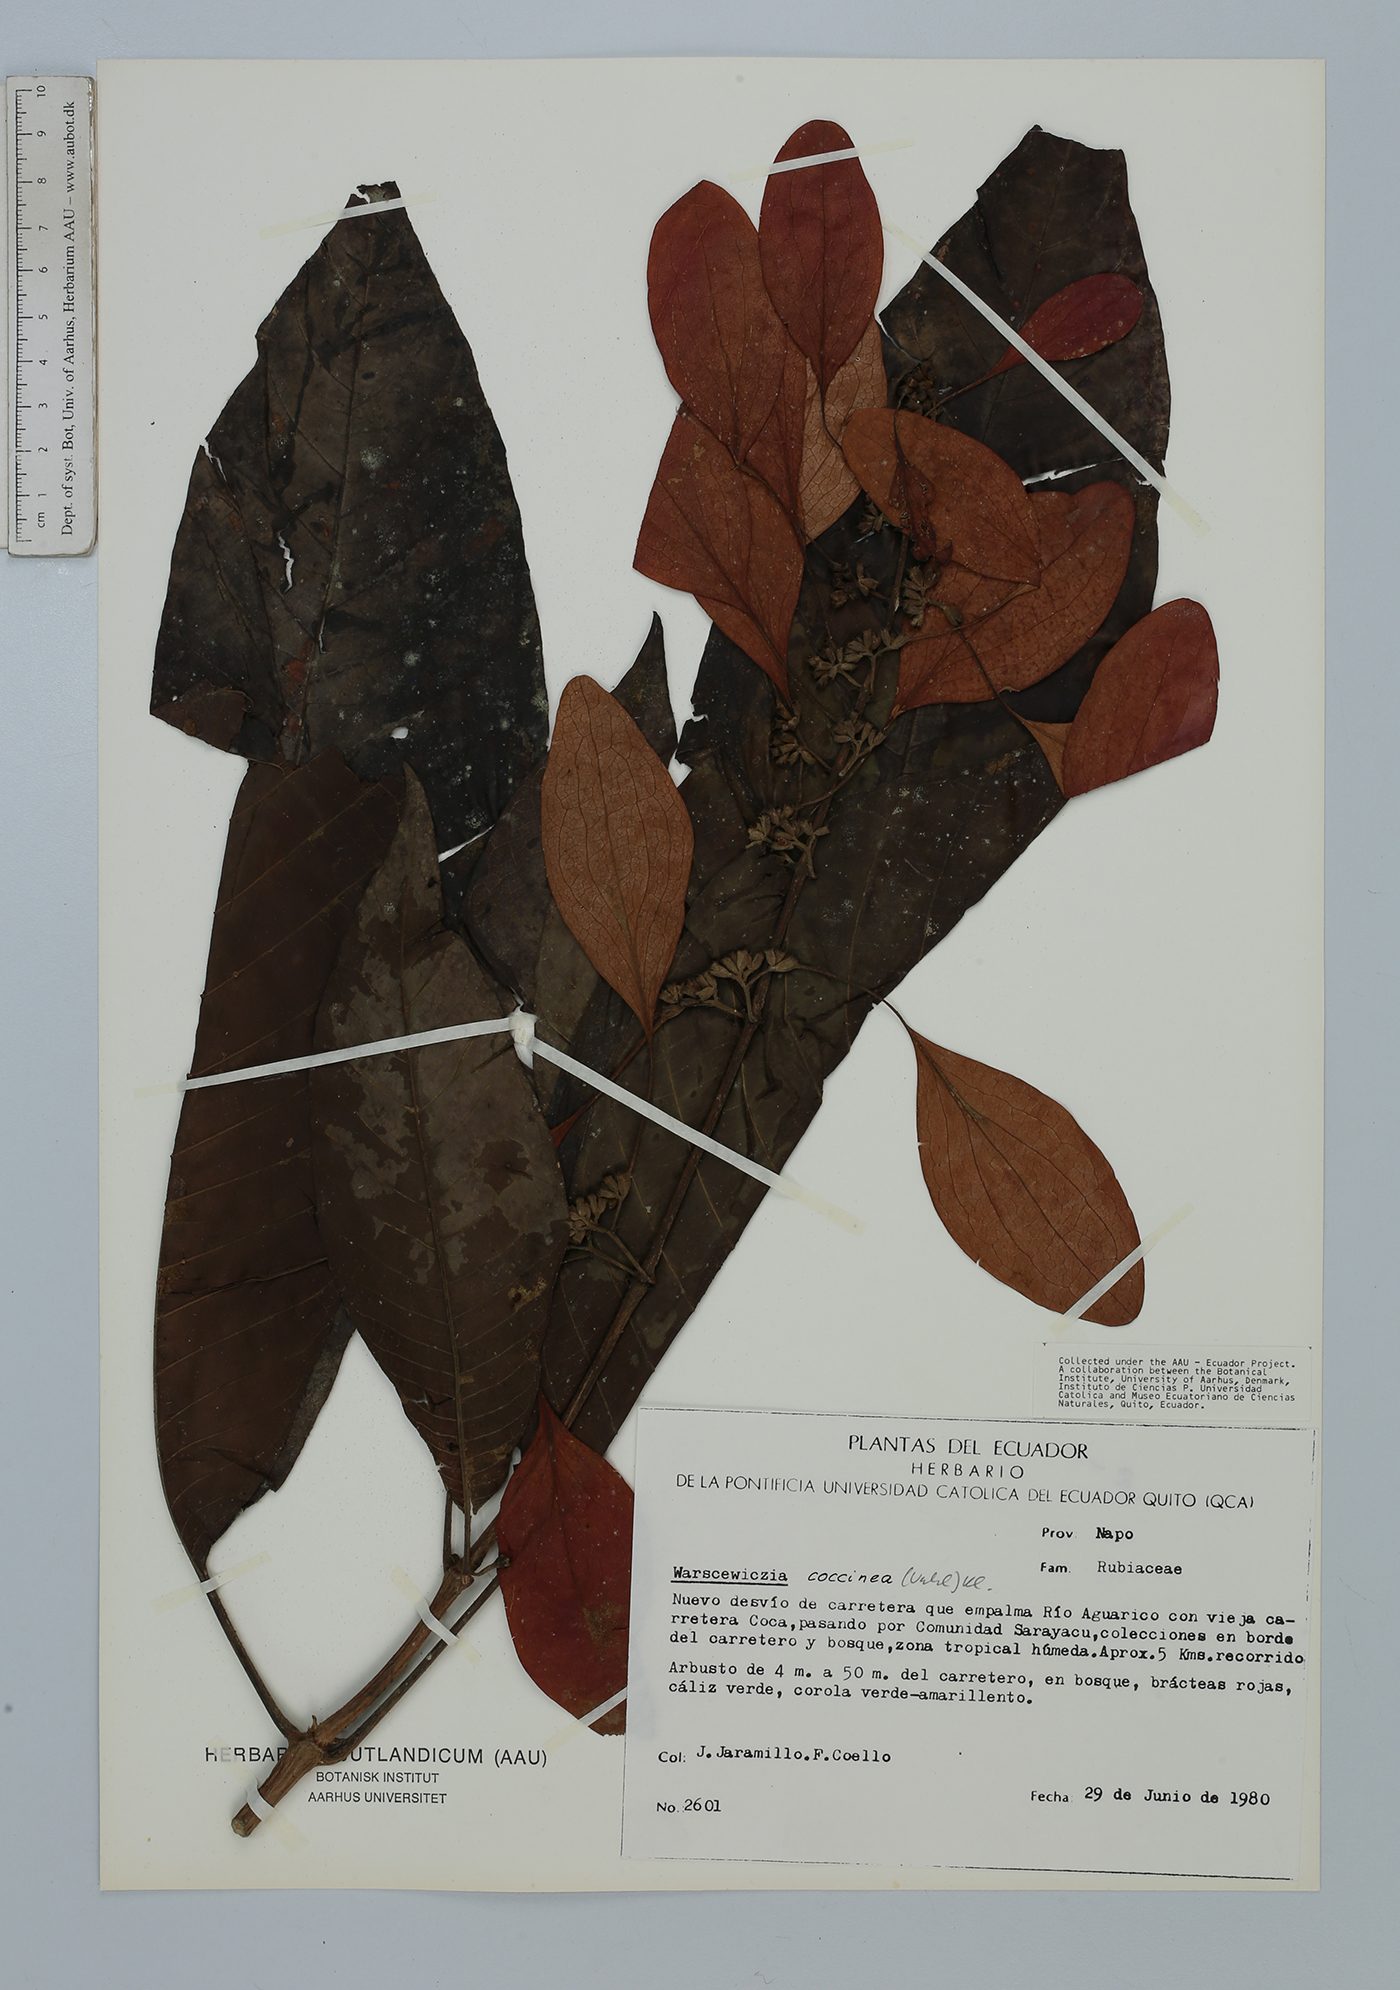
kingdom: Plantae
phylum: Tracheophyta
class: Magnoliopsida
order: Gentianales
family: Rubiaceae
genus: Warszewiczia
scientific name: Warszewiczia coccinea
